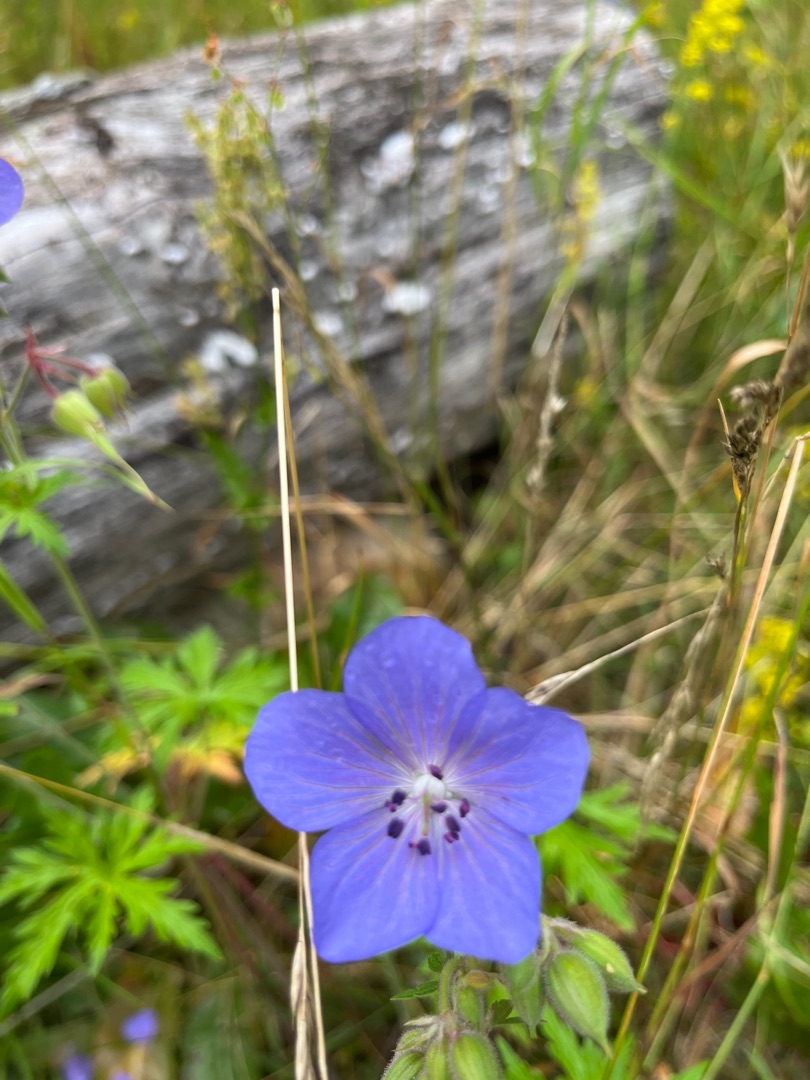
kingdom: Plantae
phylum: Tracheophyta
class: Magnoliopsida
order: Geraniales
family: Geraniaceae
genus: Geranium
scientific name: Geranium pratense
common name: Eng-storkenæb
